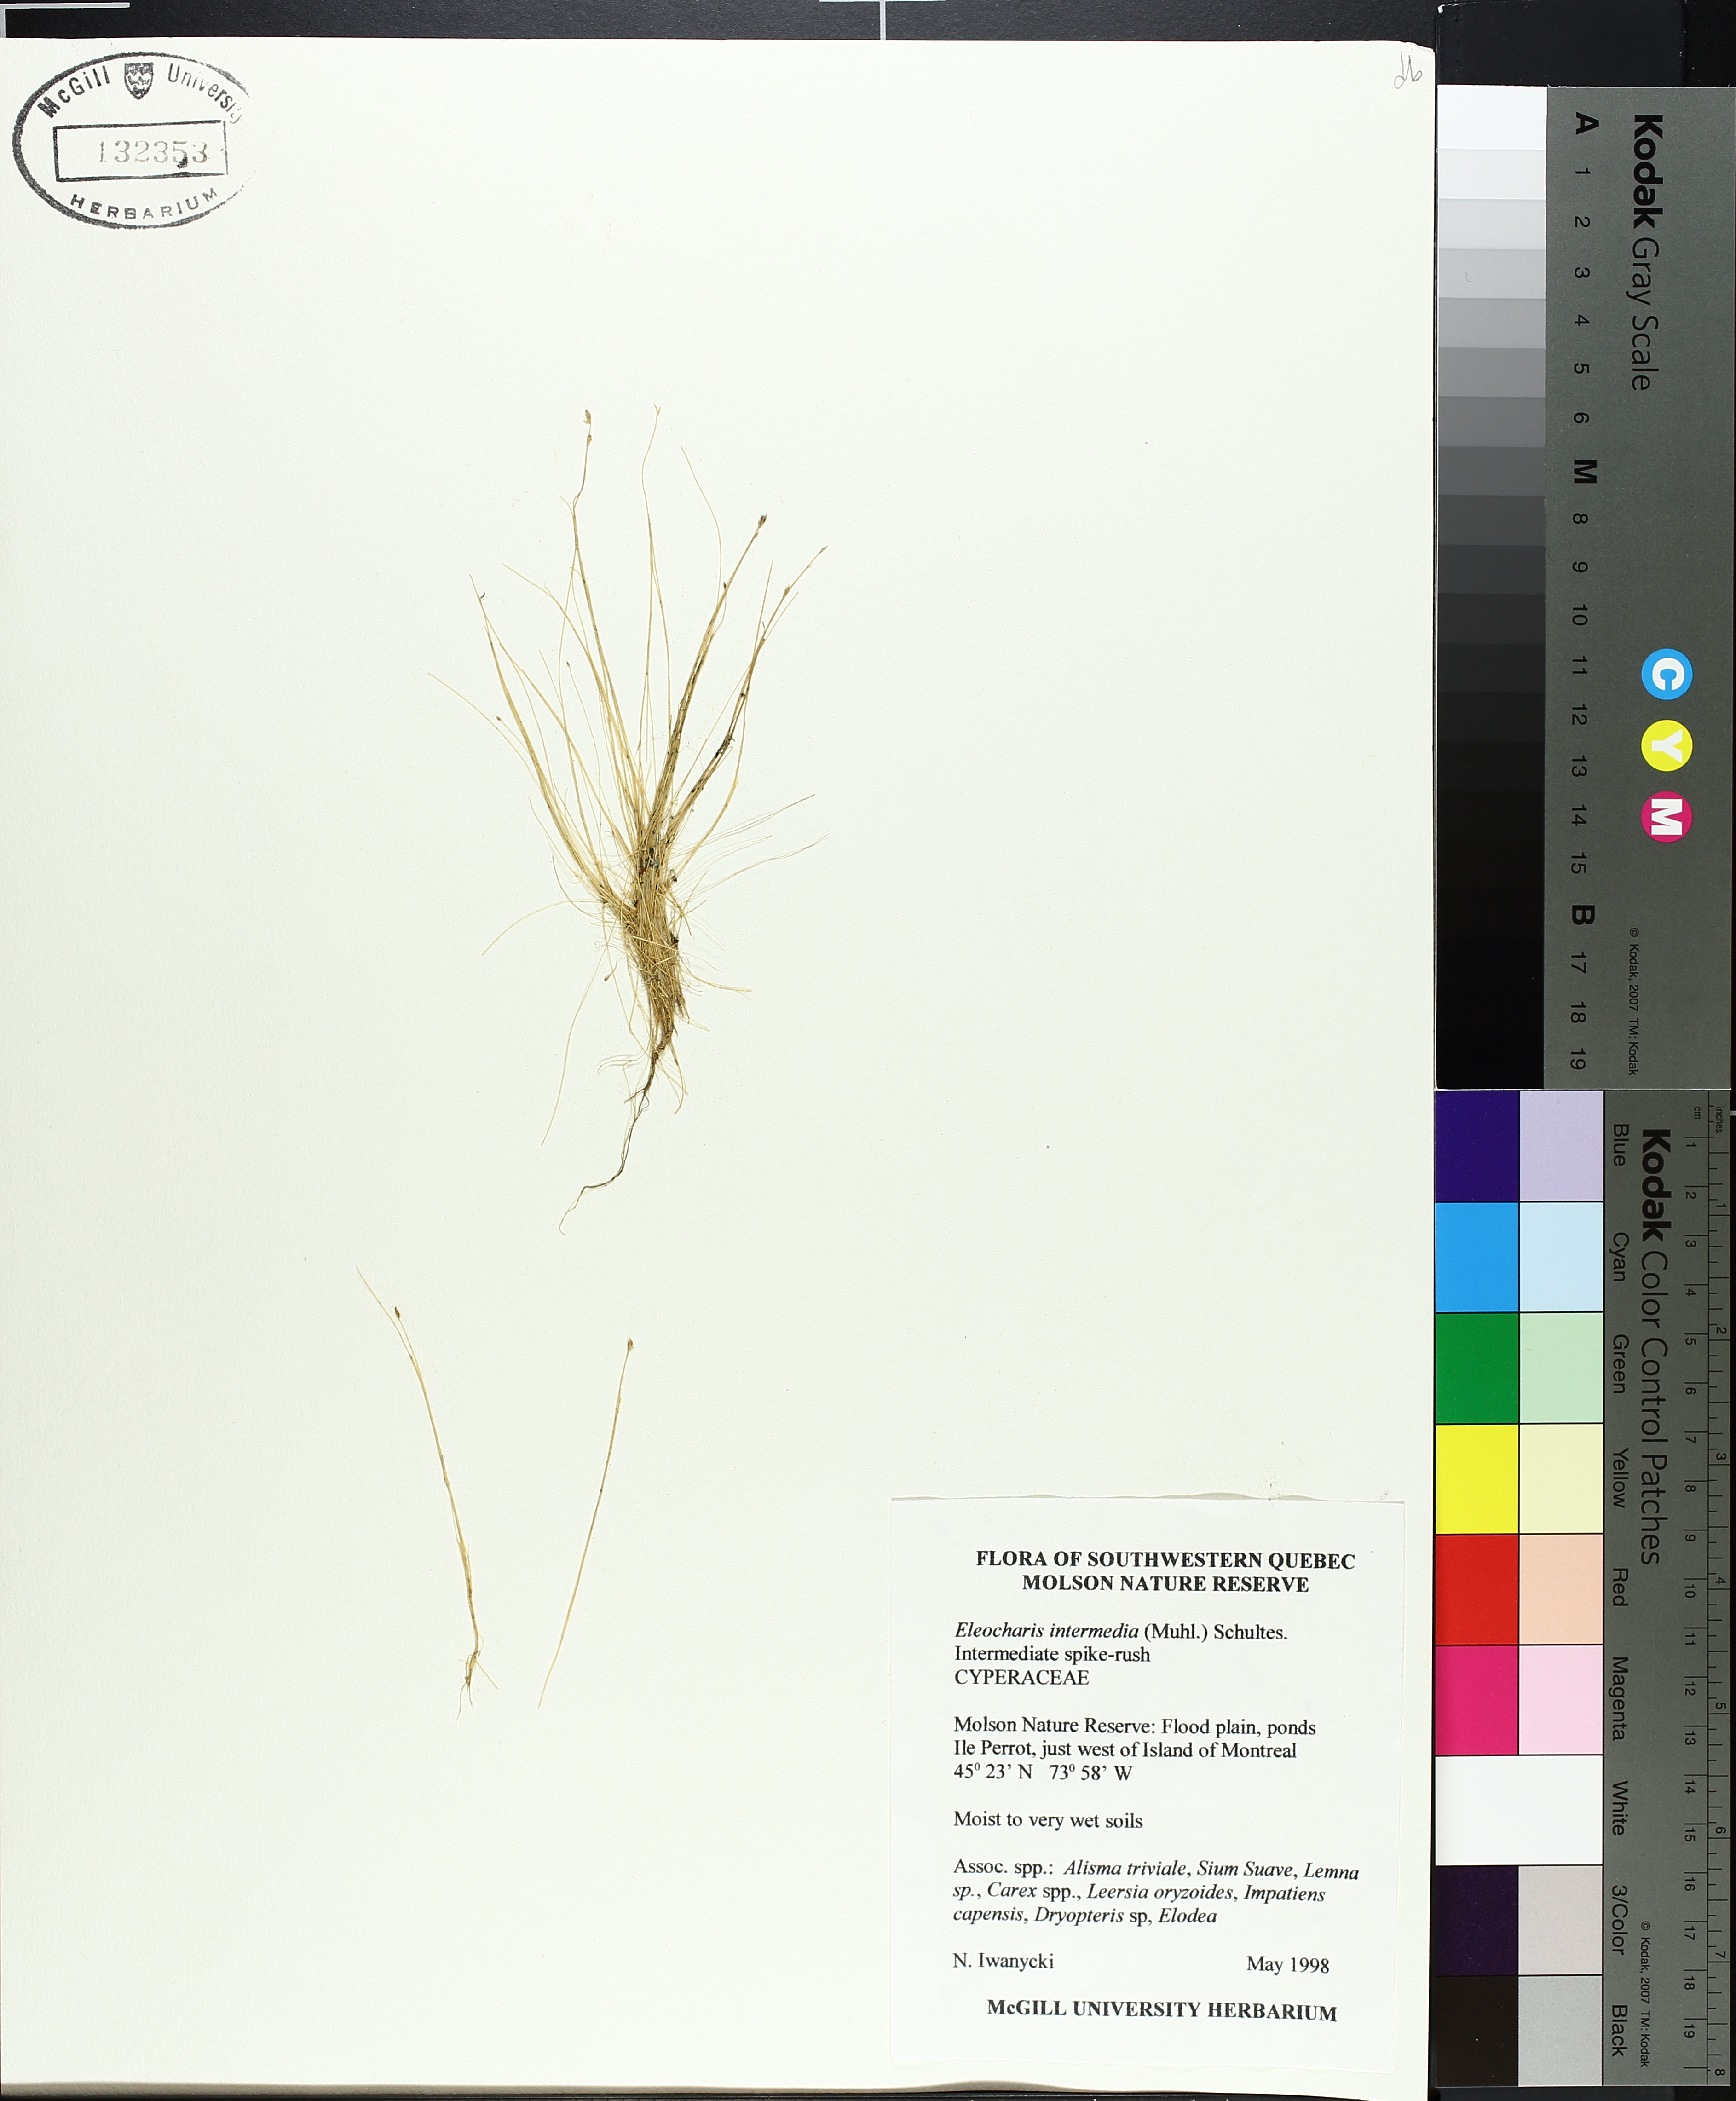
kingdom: Plantae
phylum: Tracheophyta
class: Liliopsida
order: Poales
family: Cyperaceae
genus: Eleocharis
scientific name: Eleocharis intermedia
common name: Intermediate spikerush
